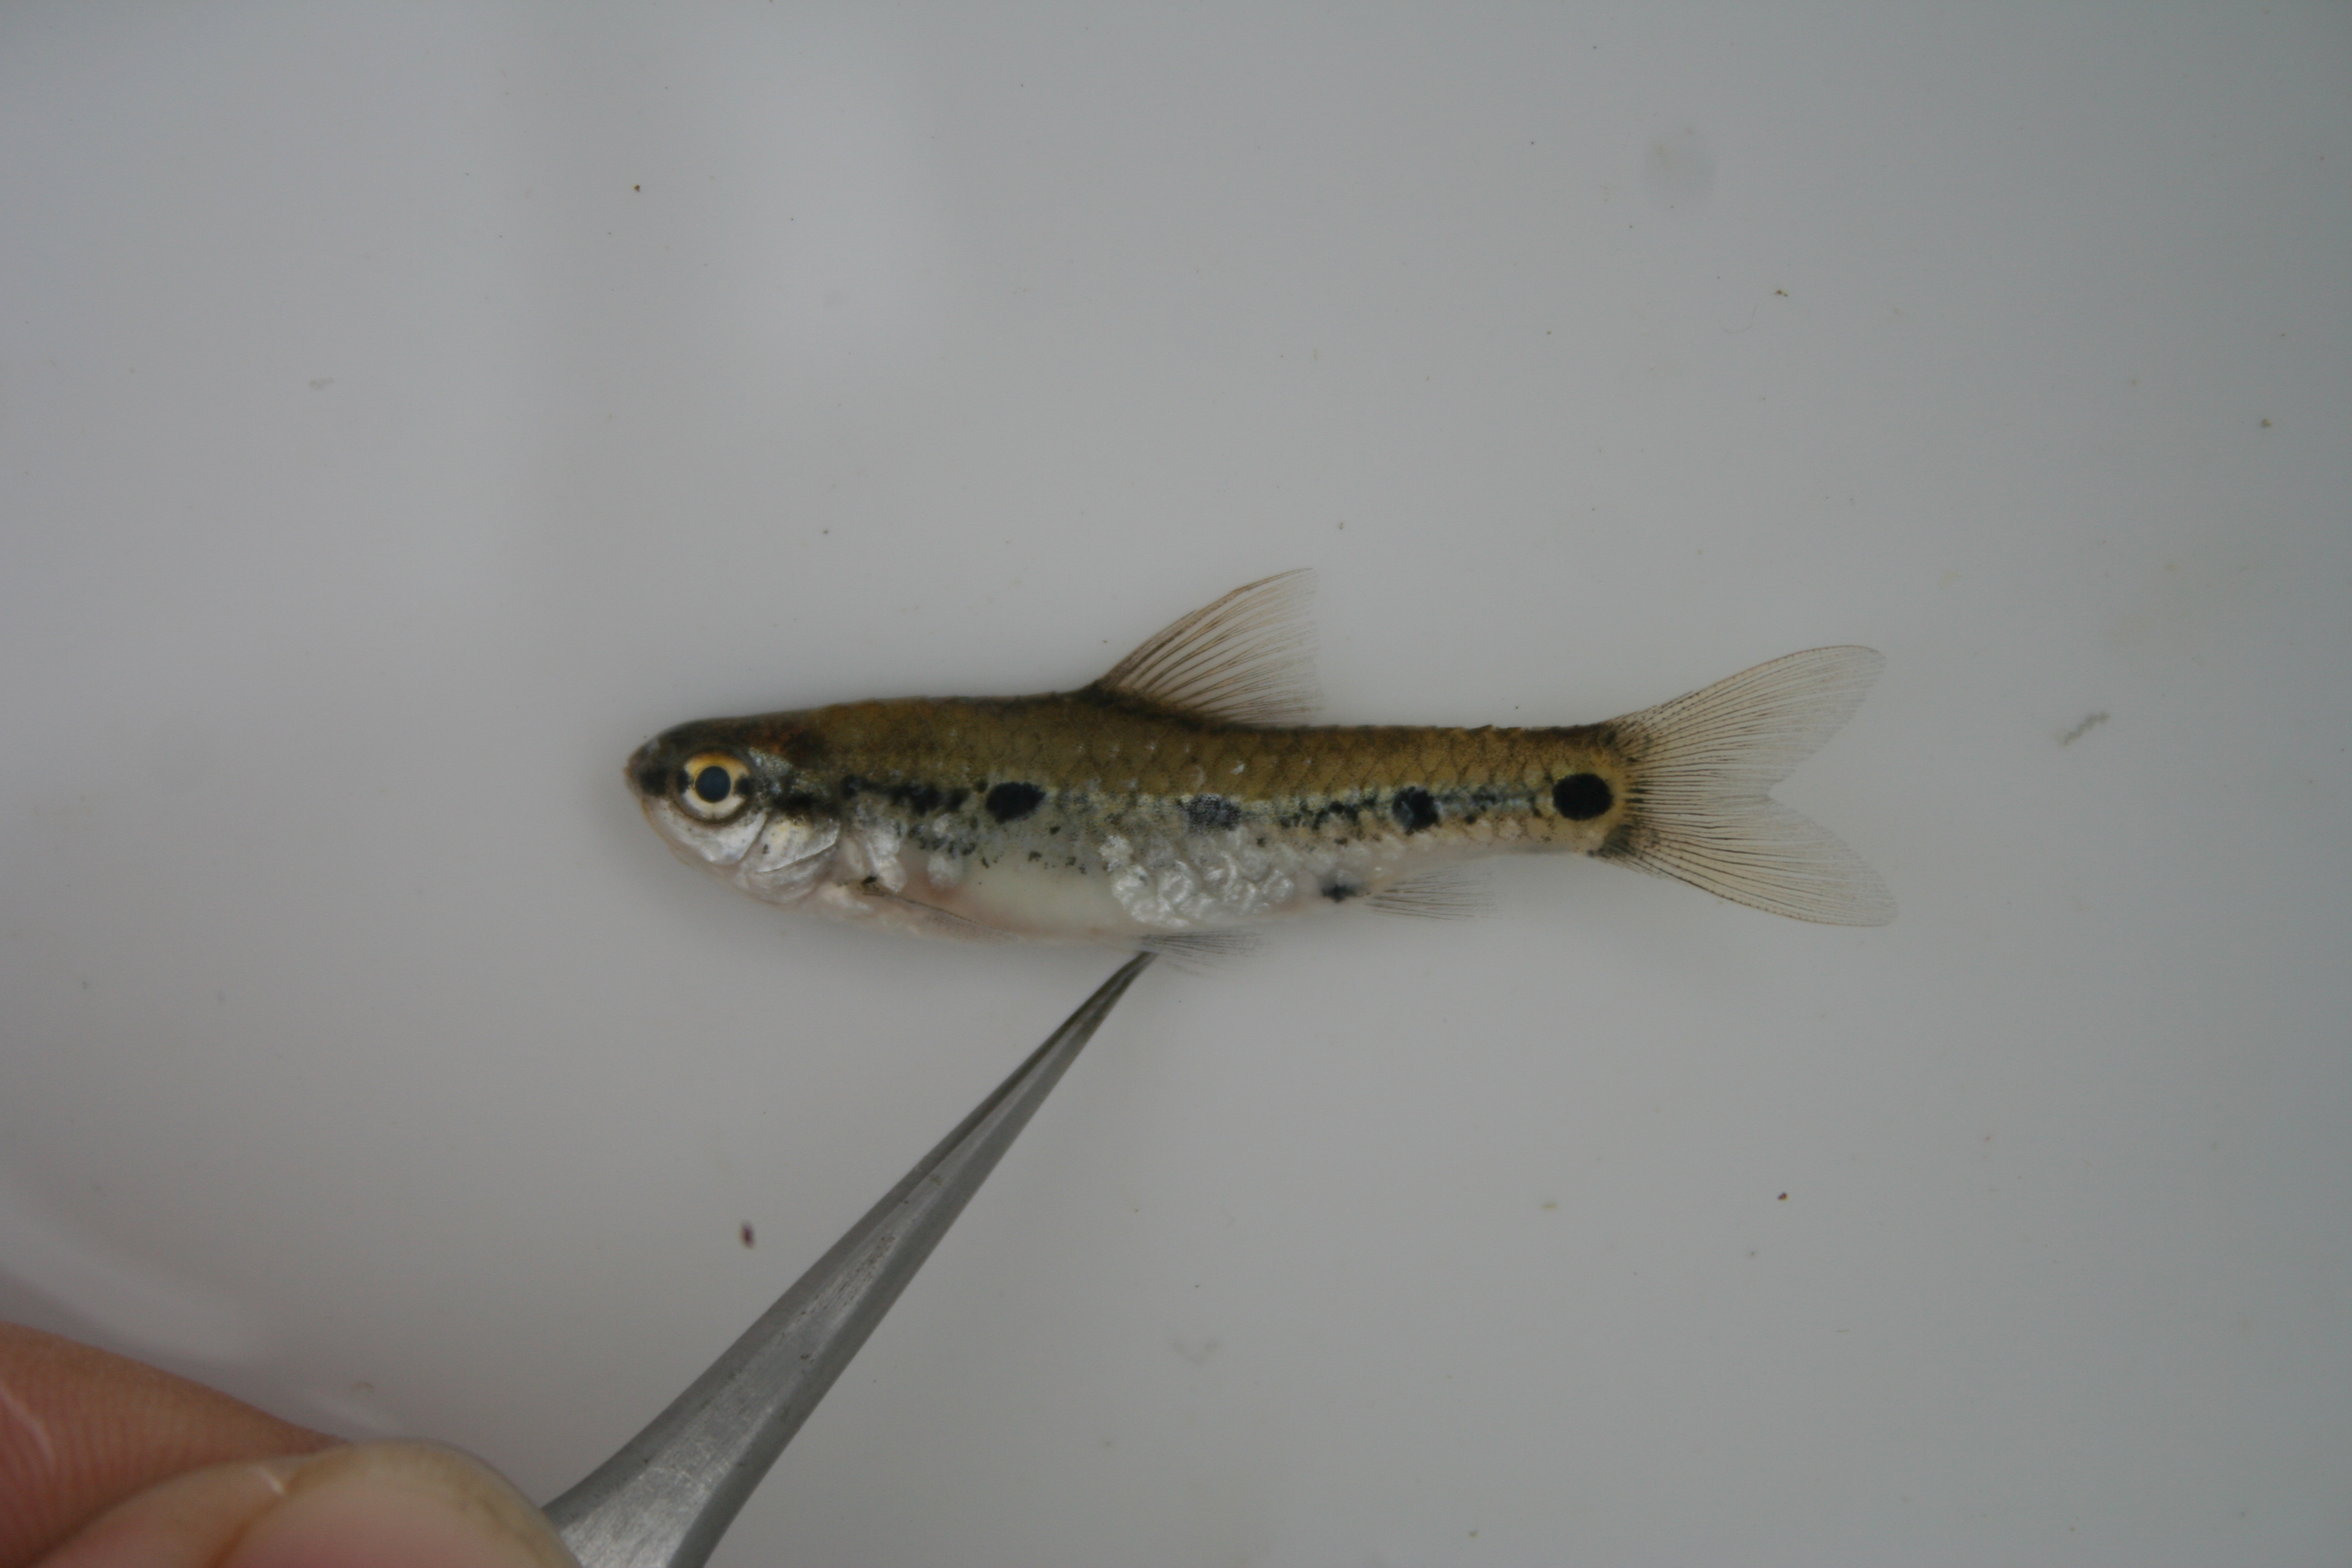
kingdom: Animalia
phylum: Chordata
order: Cypriniformes
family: Cyprinidae
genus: Enteromius
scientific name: Enteromius greenwoodi
